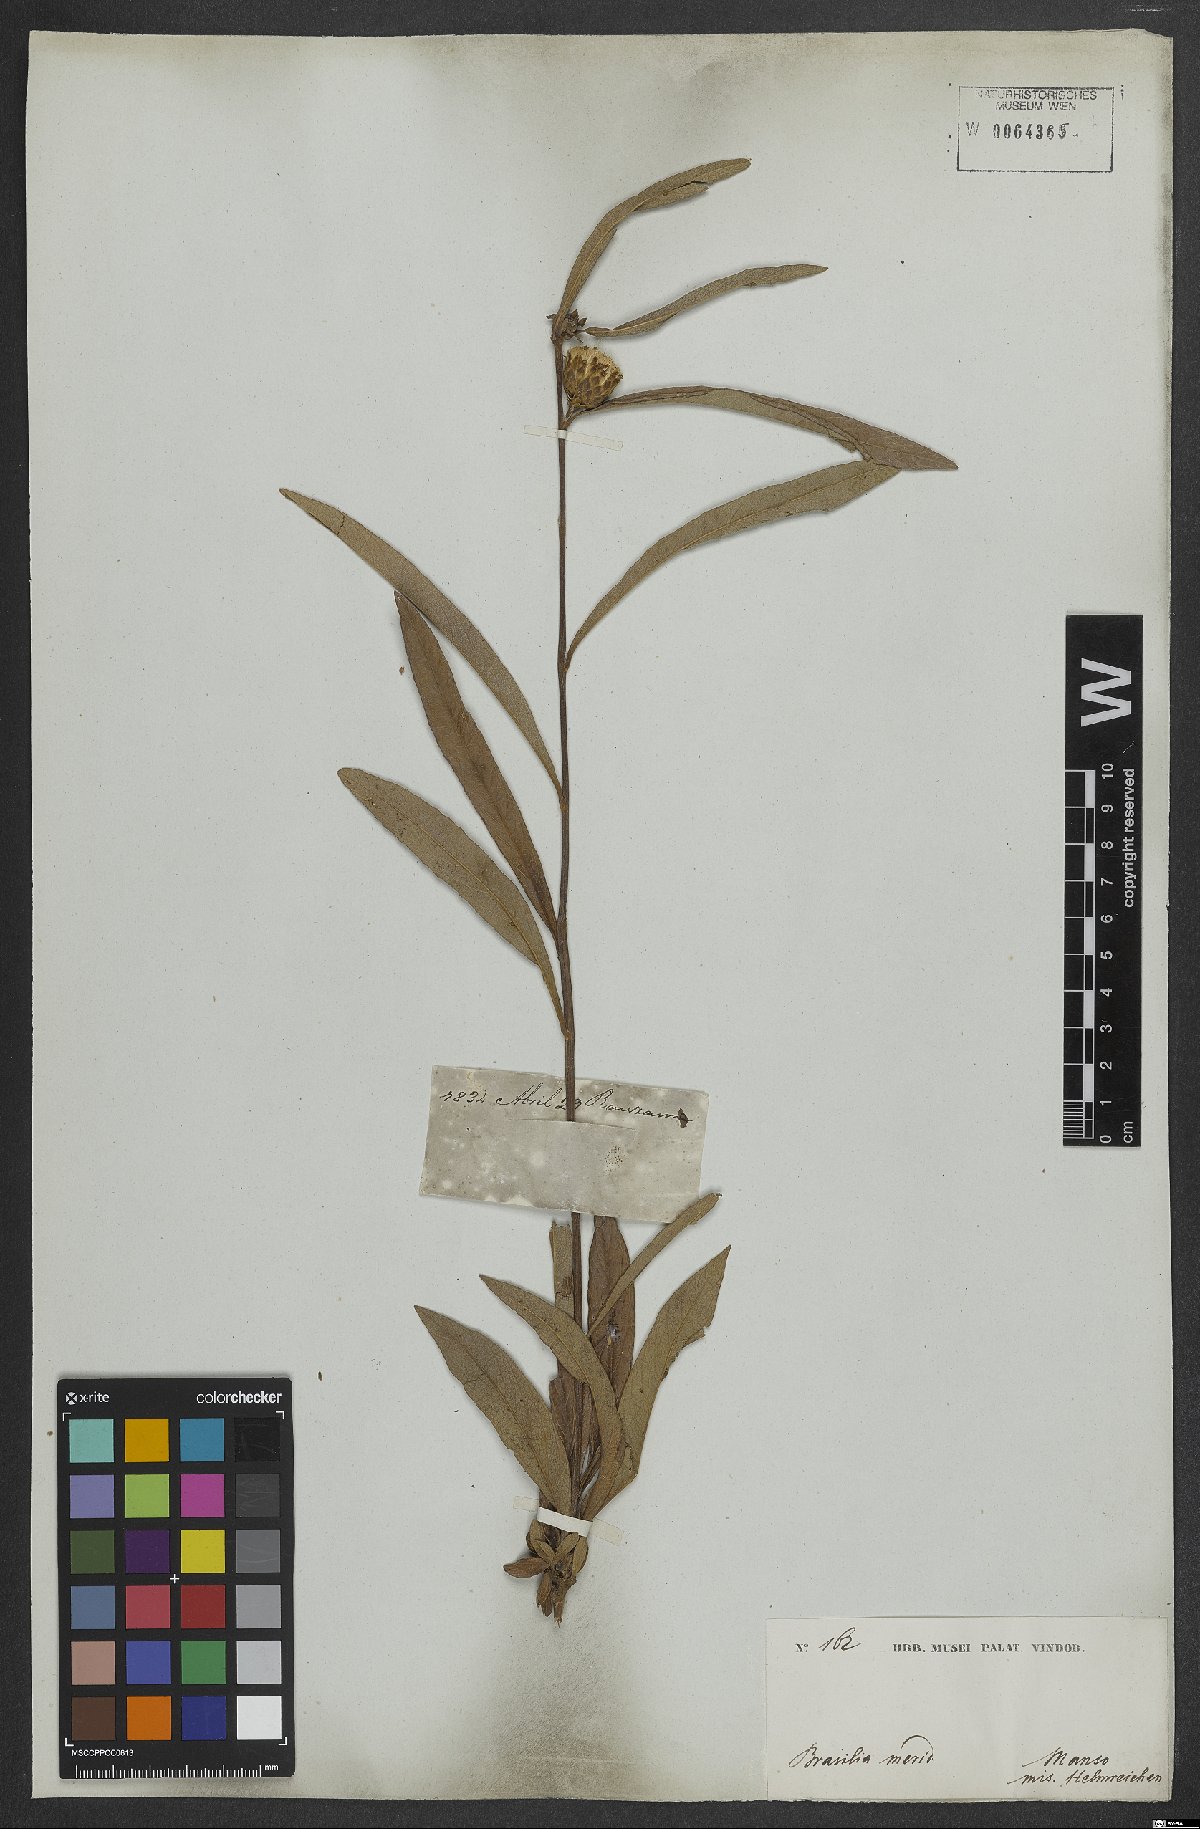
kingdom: Plantae
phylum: Tracheophyta
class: Magnoliopsida
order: Asterales
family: Asteraceae
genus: Lessingianthus
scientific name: Lessingianthus coriaceus
